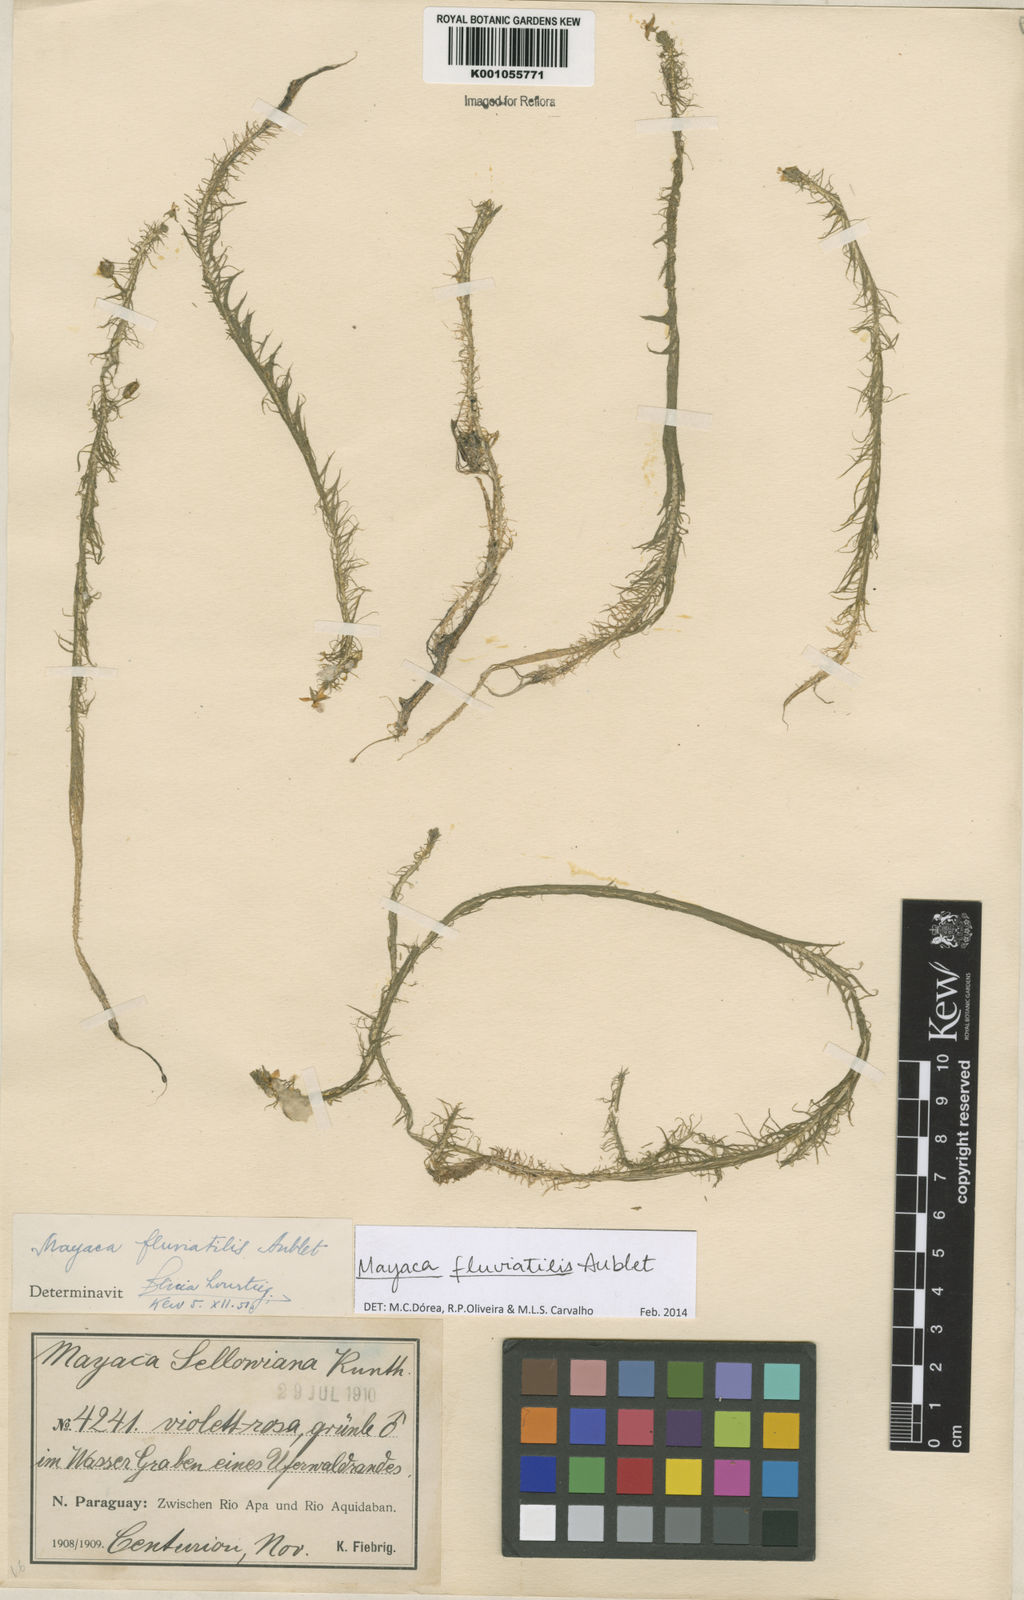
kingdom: Plantae
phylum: Tracheophyta
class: Liliopsida
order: Poales
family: Mayacaceae
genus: Mayaca
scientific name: Mayaca
